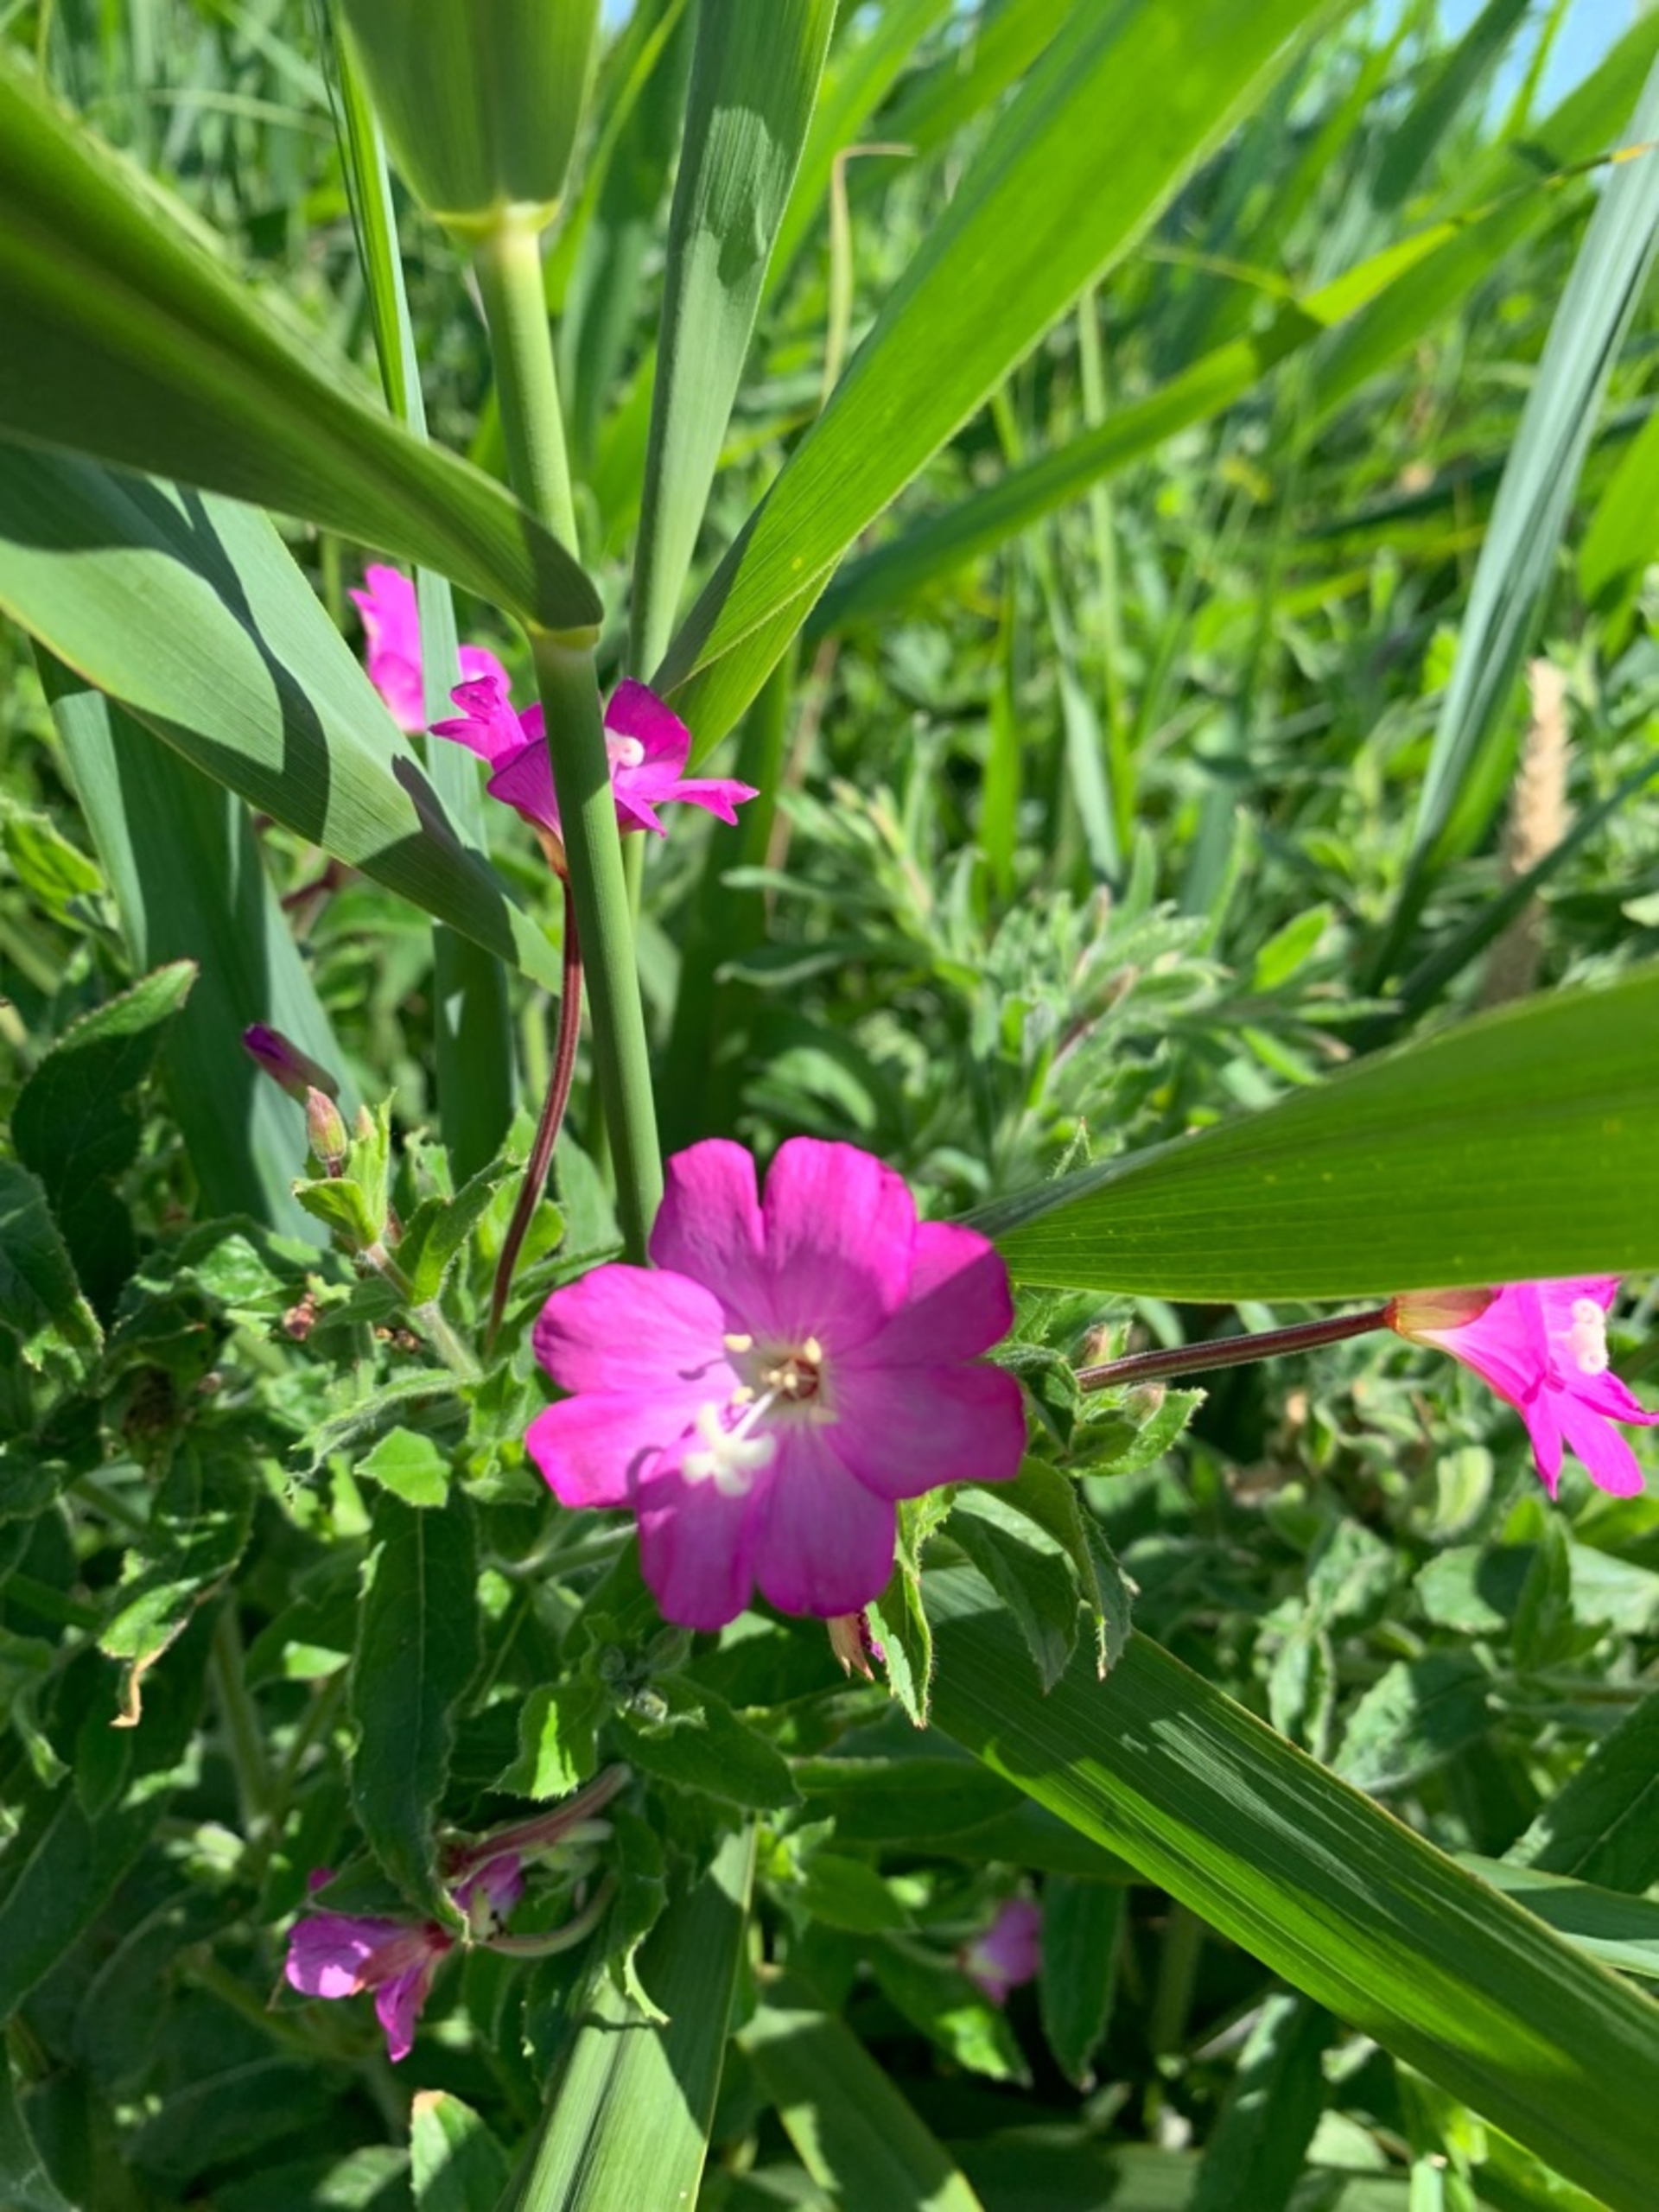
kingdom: Plantae
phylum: Tracheophyta
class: Magnoliopsida
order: Myrtales
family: Onagraceae
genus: Epilobium
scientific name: Epilobium hirsutum
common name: Lådden dueurt
